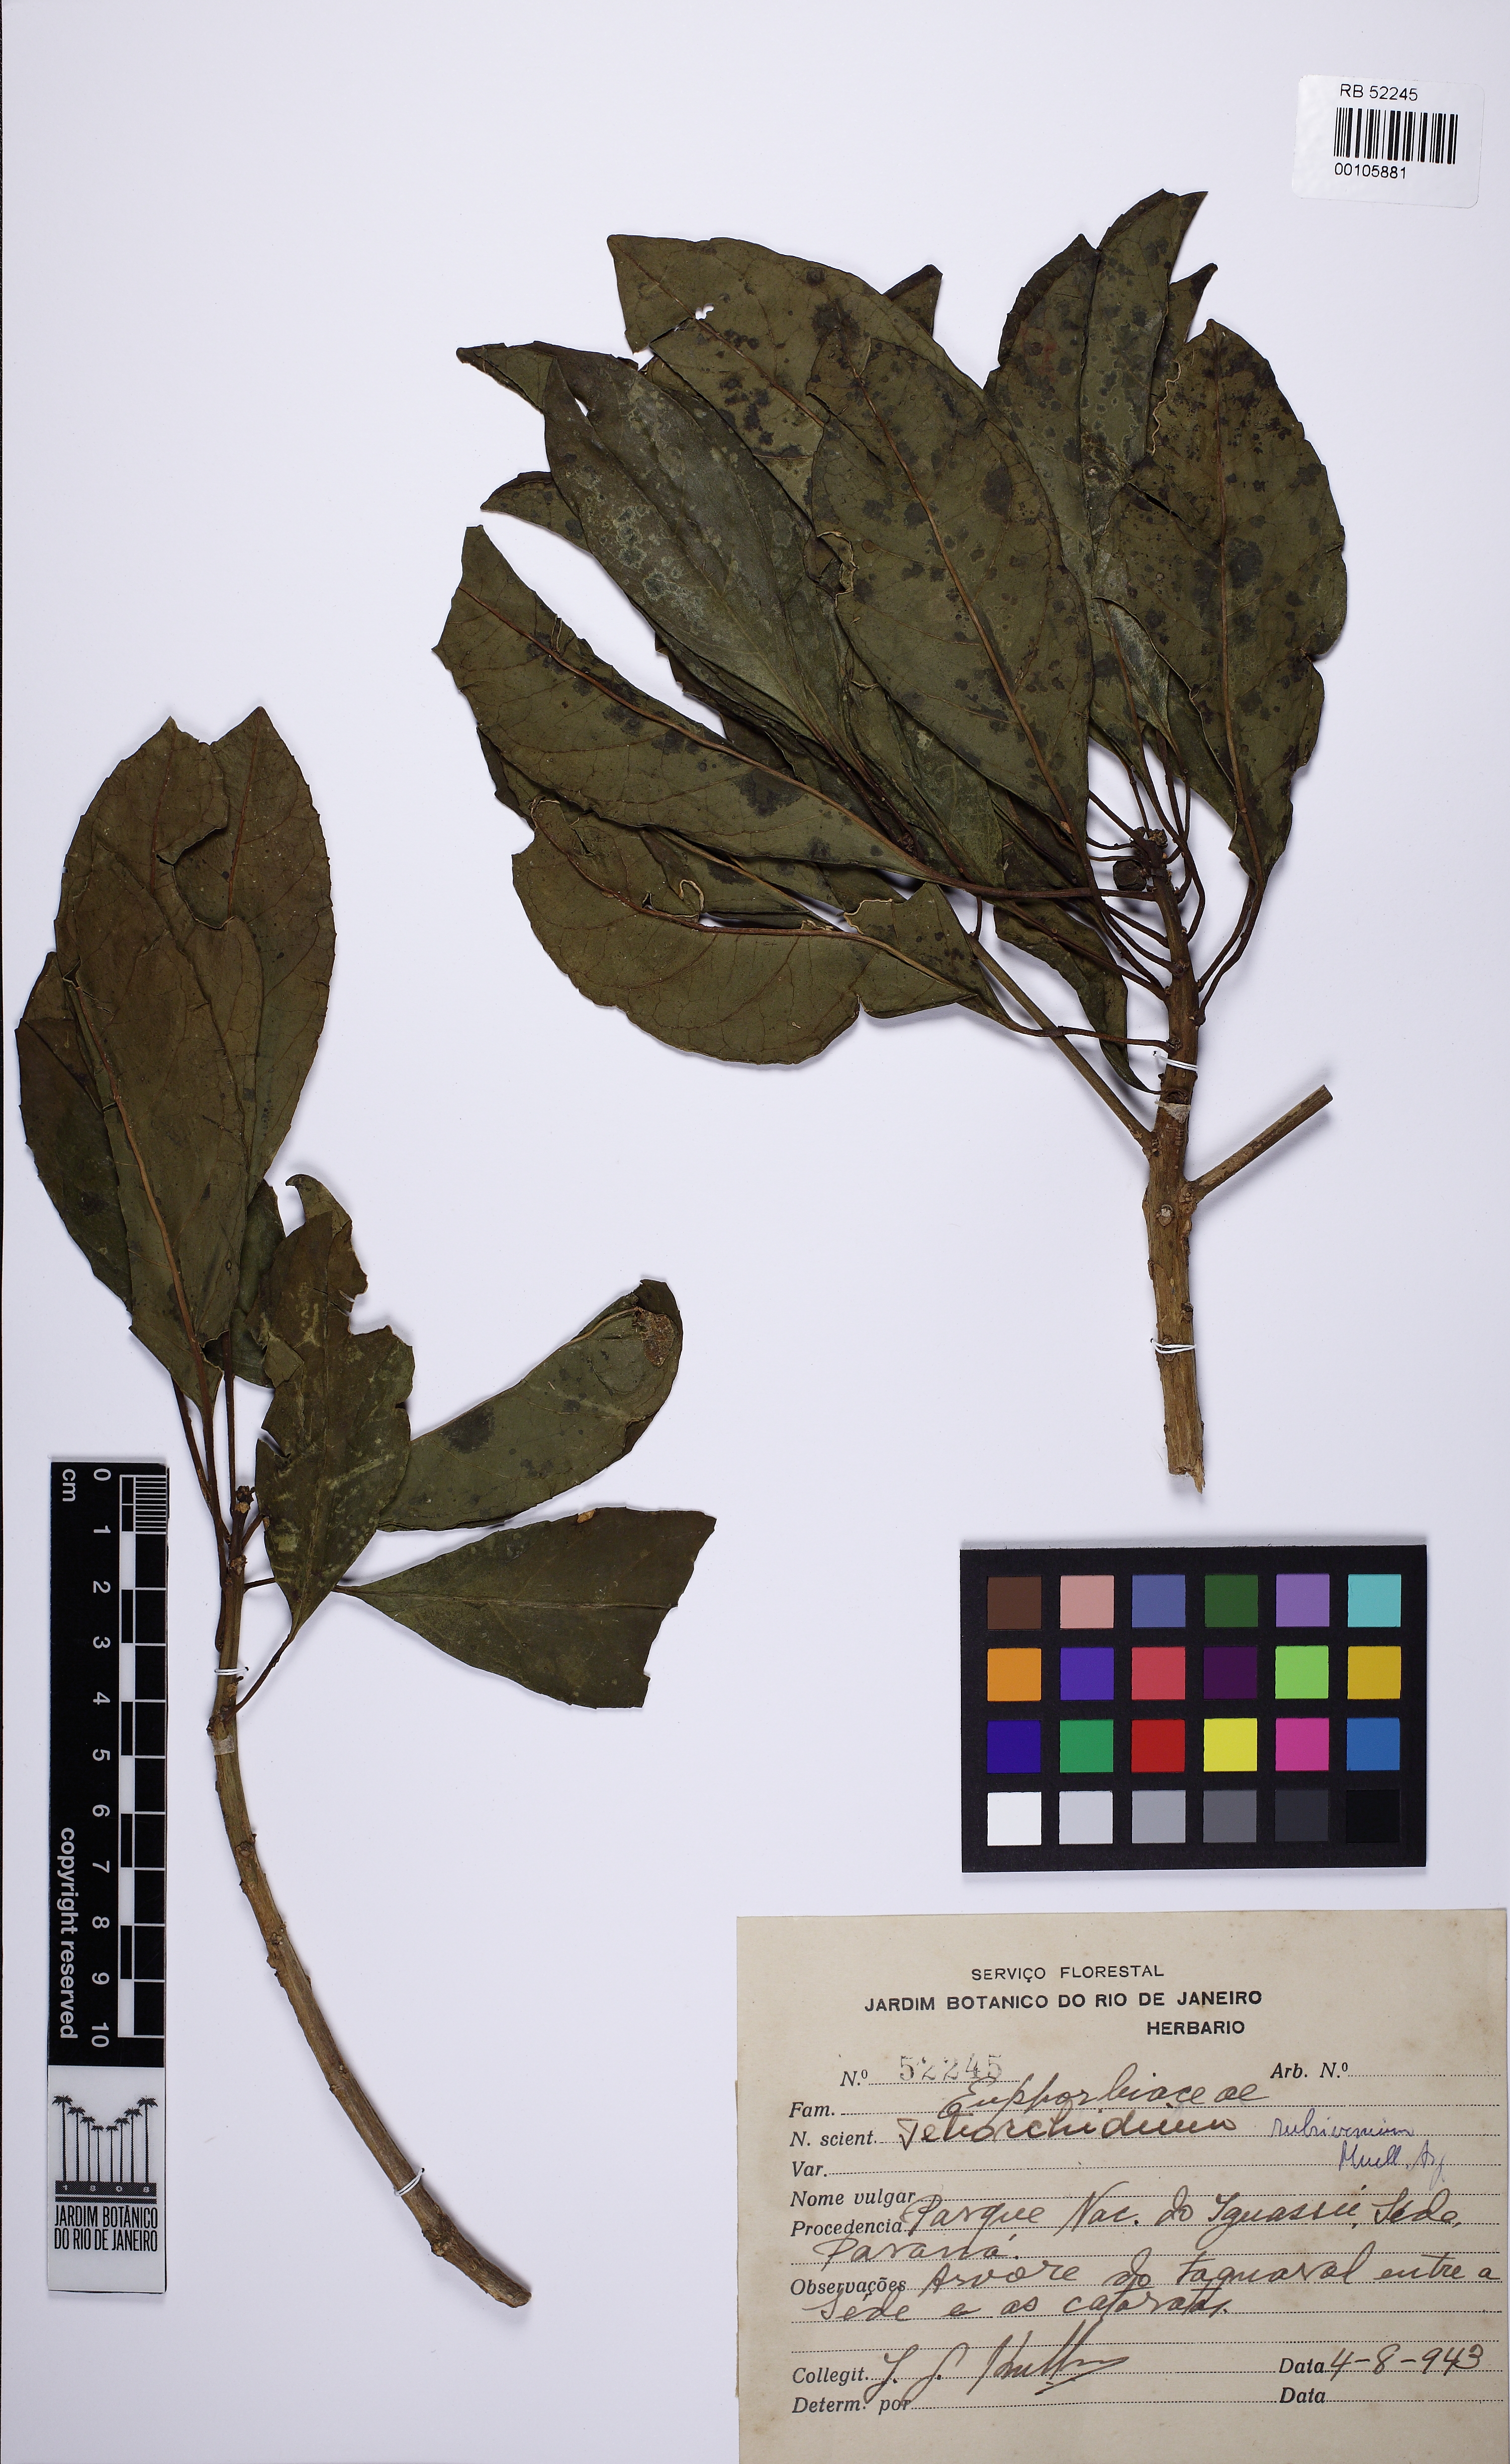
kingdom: Plantae
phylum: Tracheophyta
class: Magnoliopsida
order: Malpighiales
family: Euphorbiaceae
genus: Tetrorchidium
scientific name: Tetrorchidium rubrivenium
